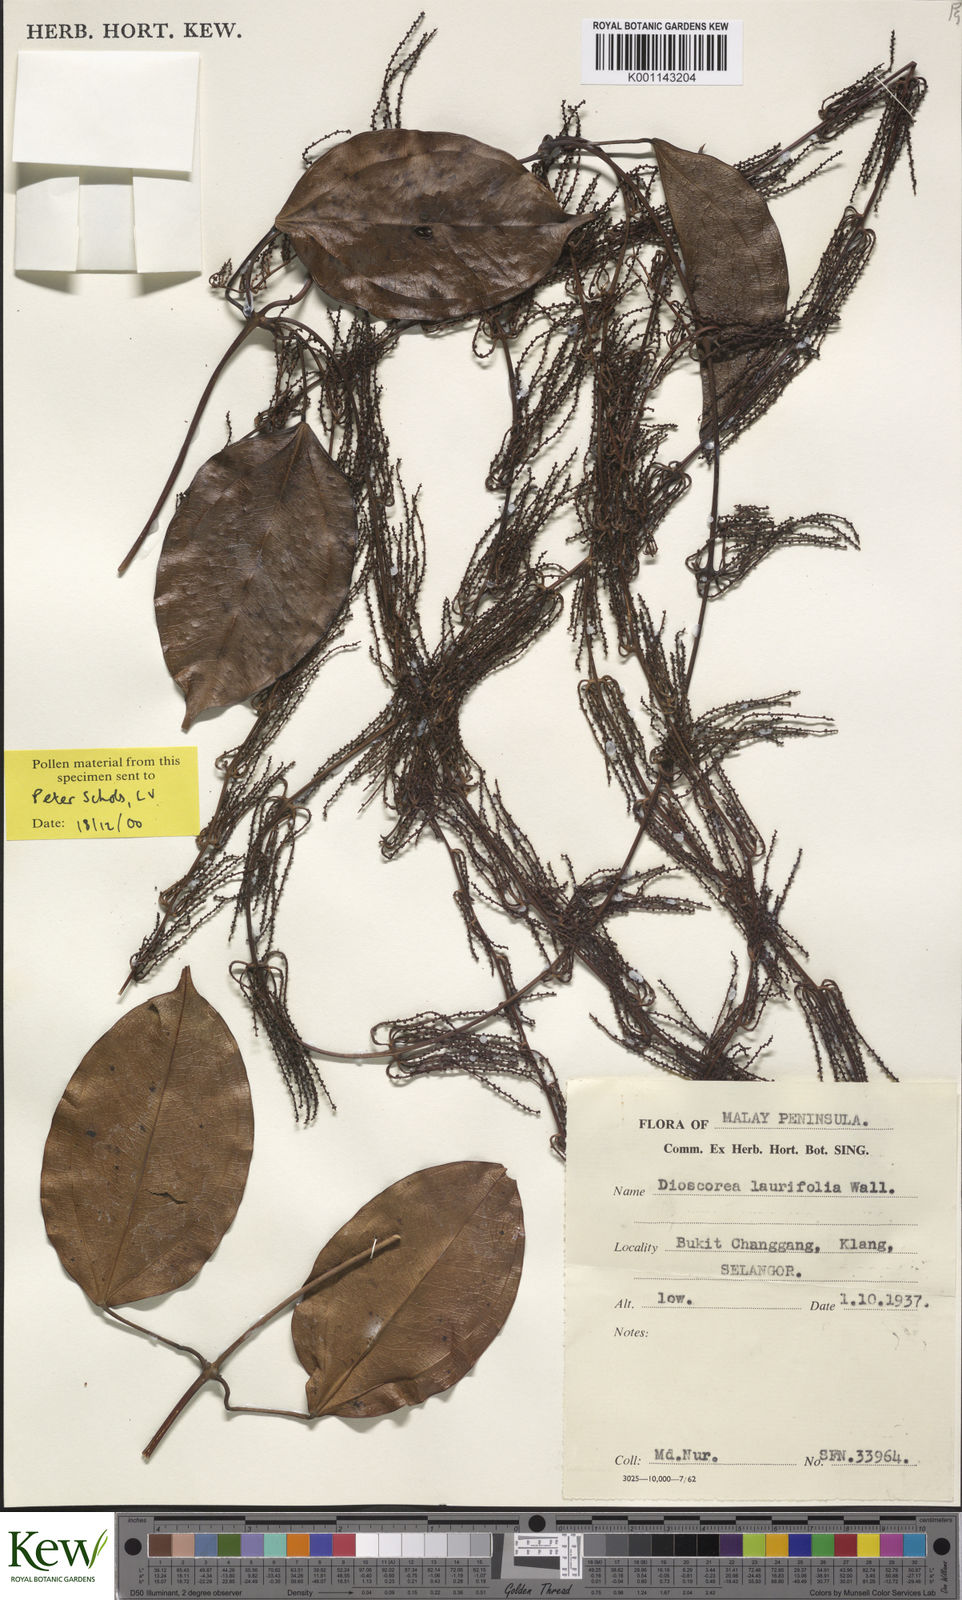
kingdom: Plantae
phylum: Tracheophyta
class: Liliopsida
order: Dioscoreales
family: Dioscoreaceae
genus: Dioscorea
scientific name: Dioscorea laurifolia
